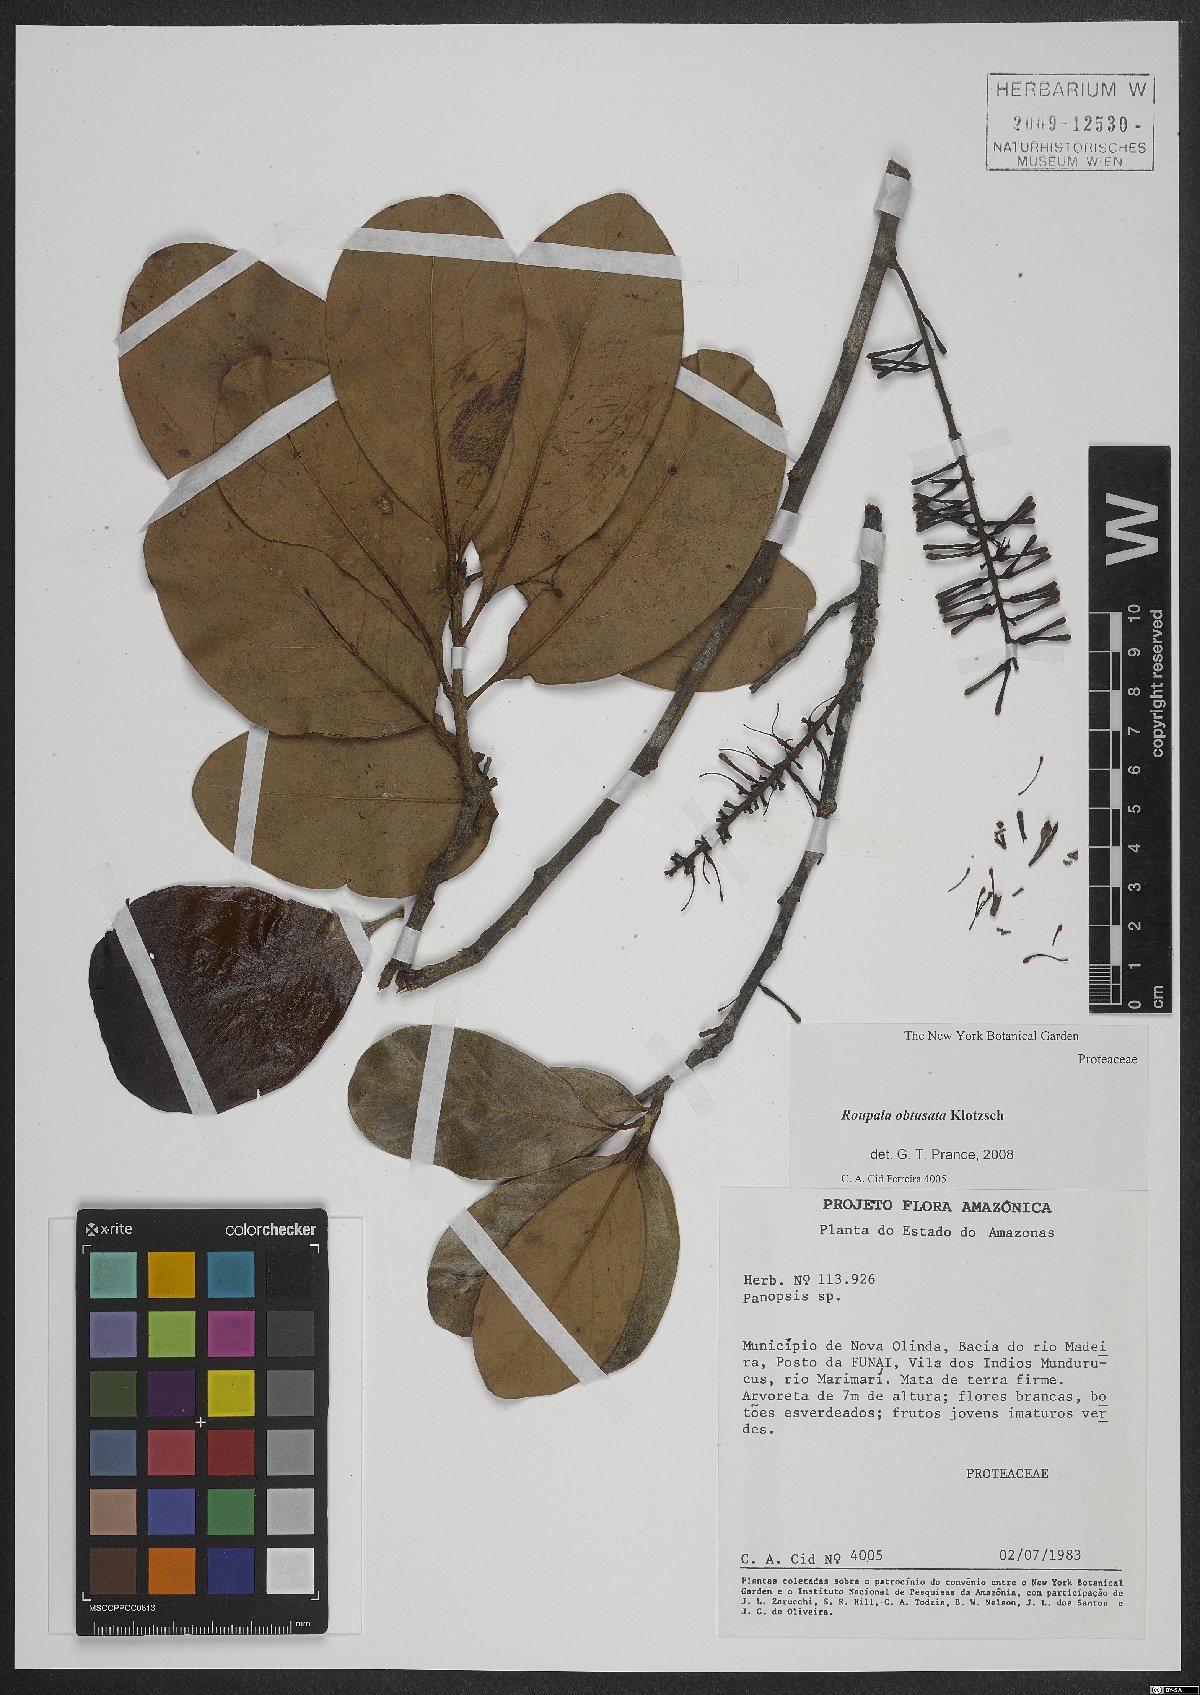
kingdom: Plantae
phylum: Tracheophyta
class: Magnoliopsida
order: Proteales
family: Proteaceae
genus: Roupala
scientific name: Roupala obtusata
